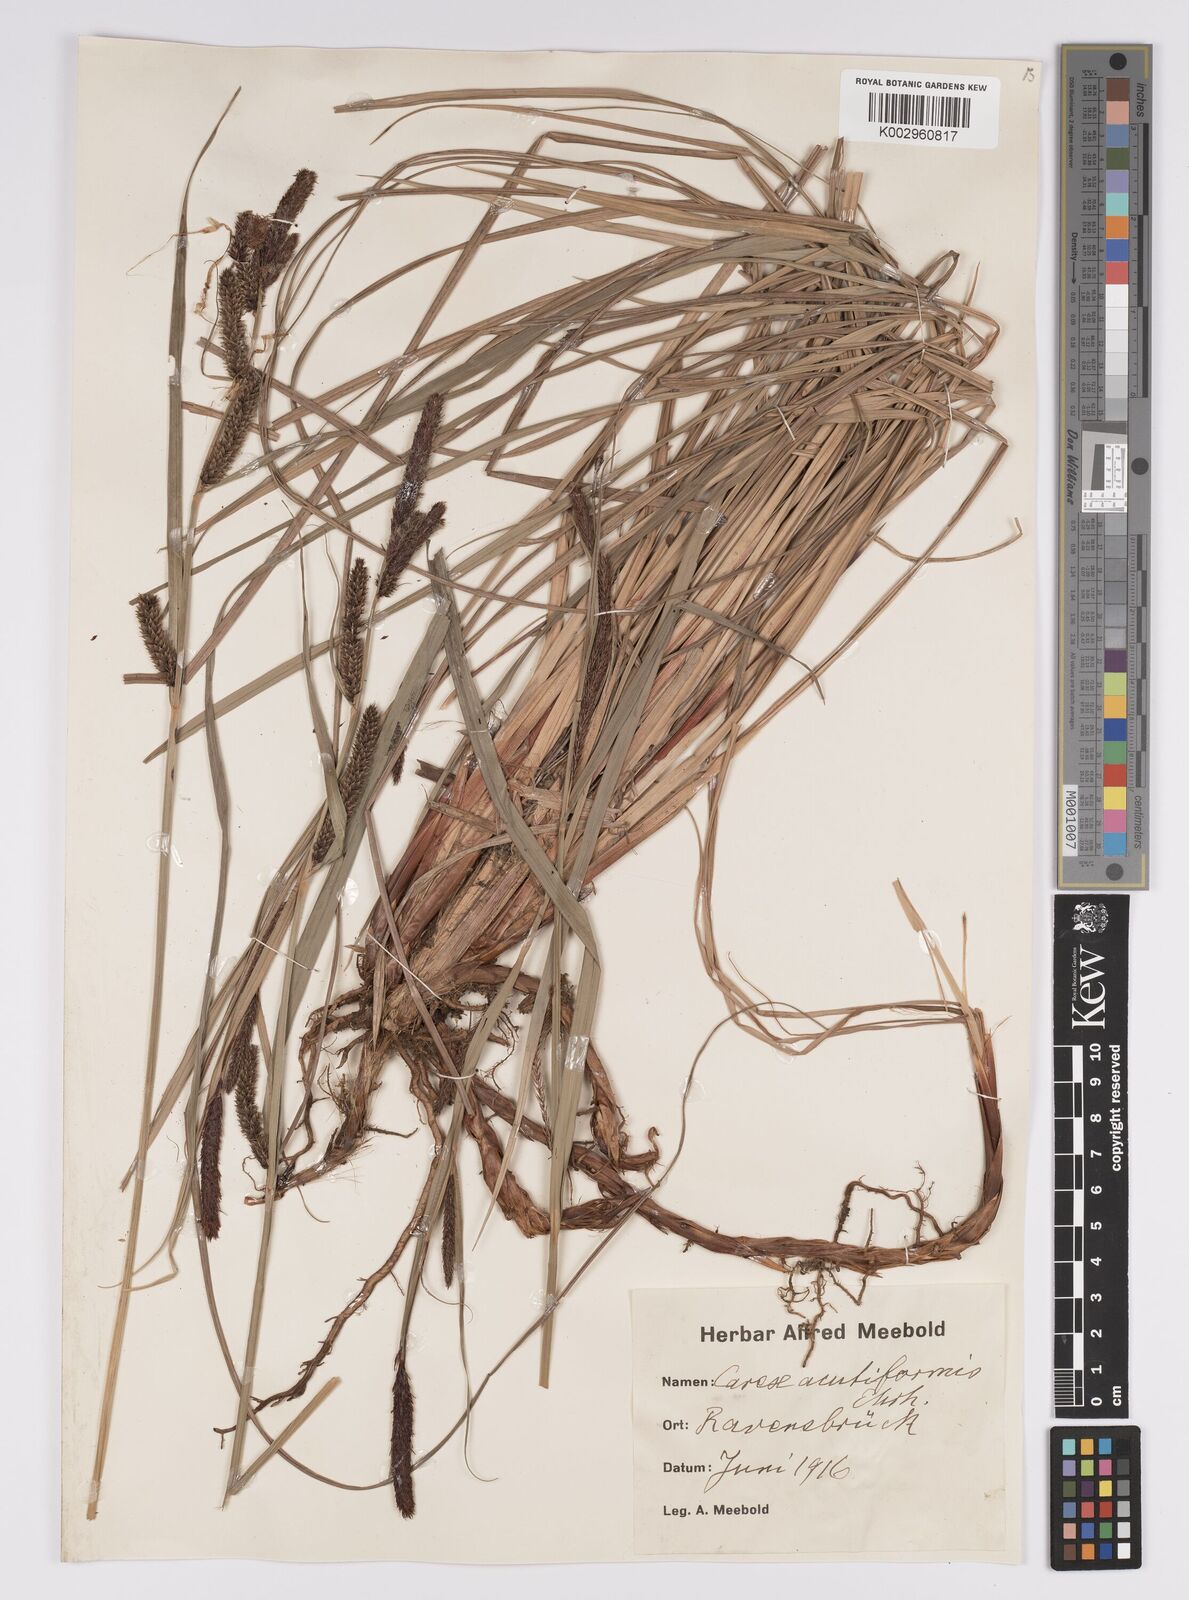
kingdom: Plantae
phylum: Tracheophyta
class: Liliopsida
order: Poales
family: Cyperaceae
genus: Carex
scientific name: Carex acutiformis
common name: Lesser pond-sedge
